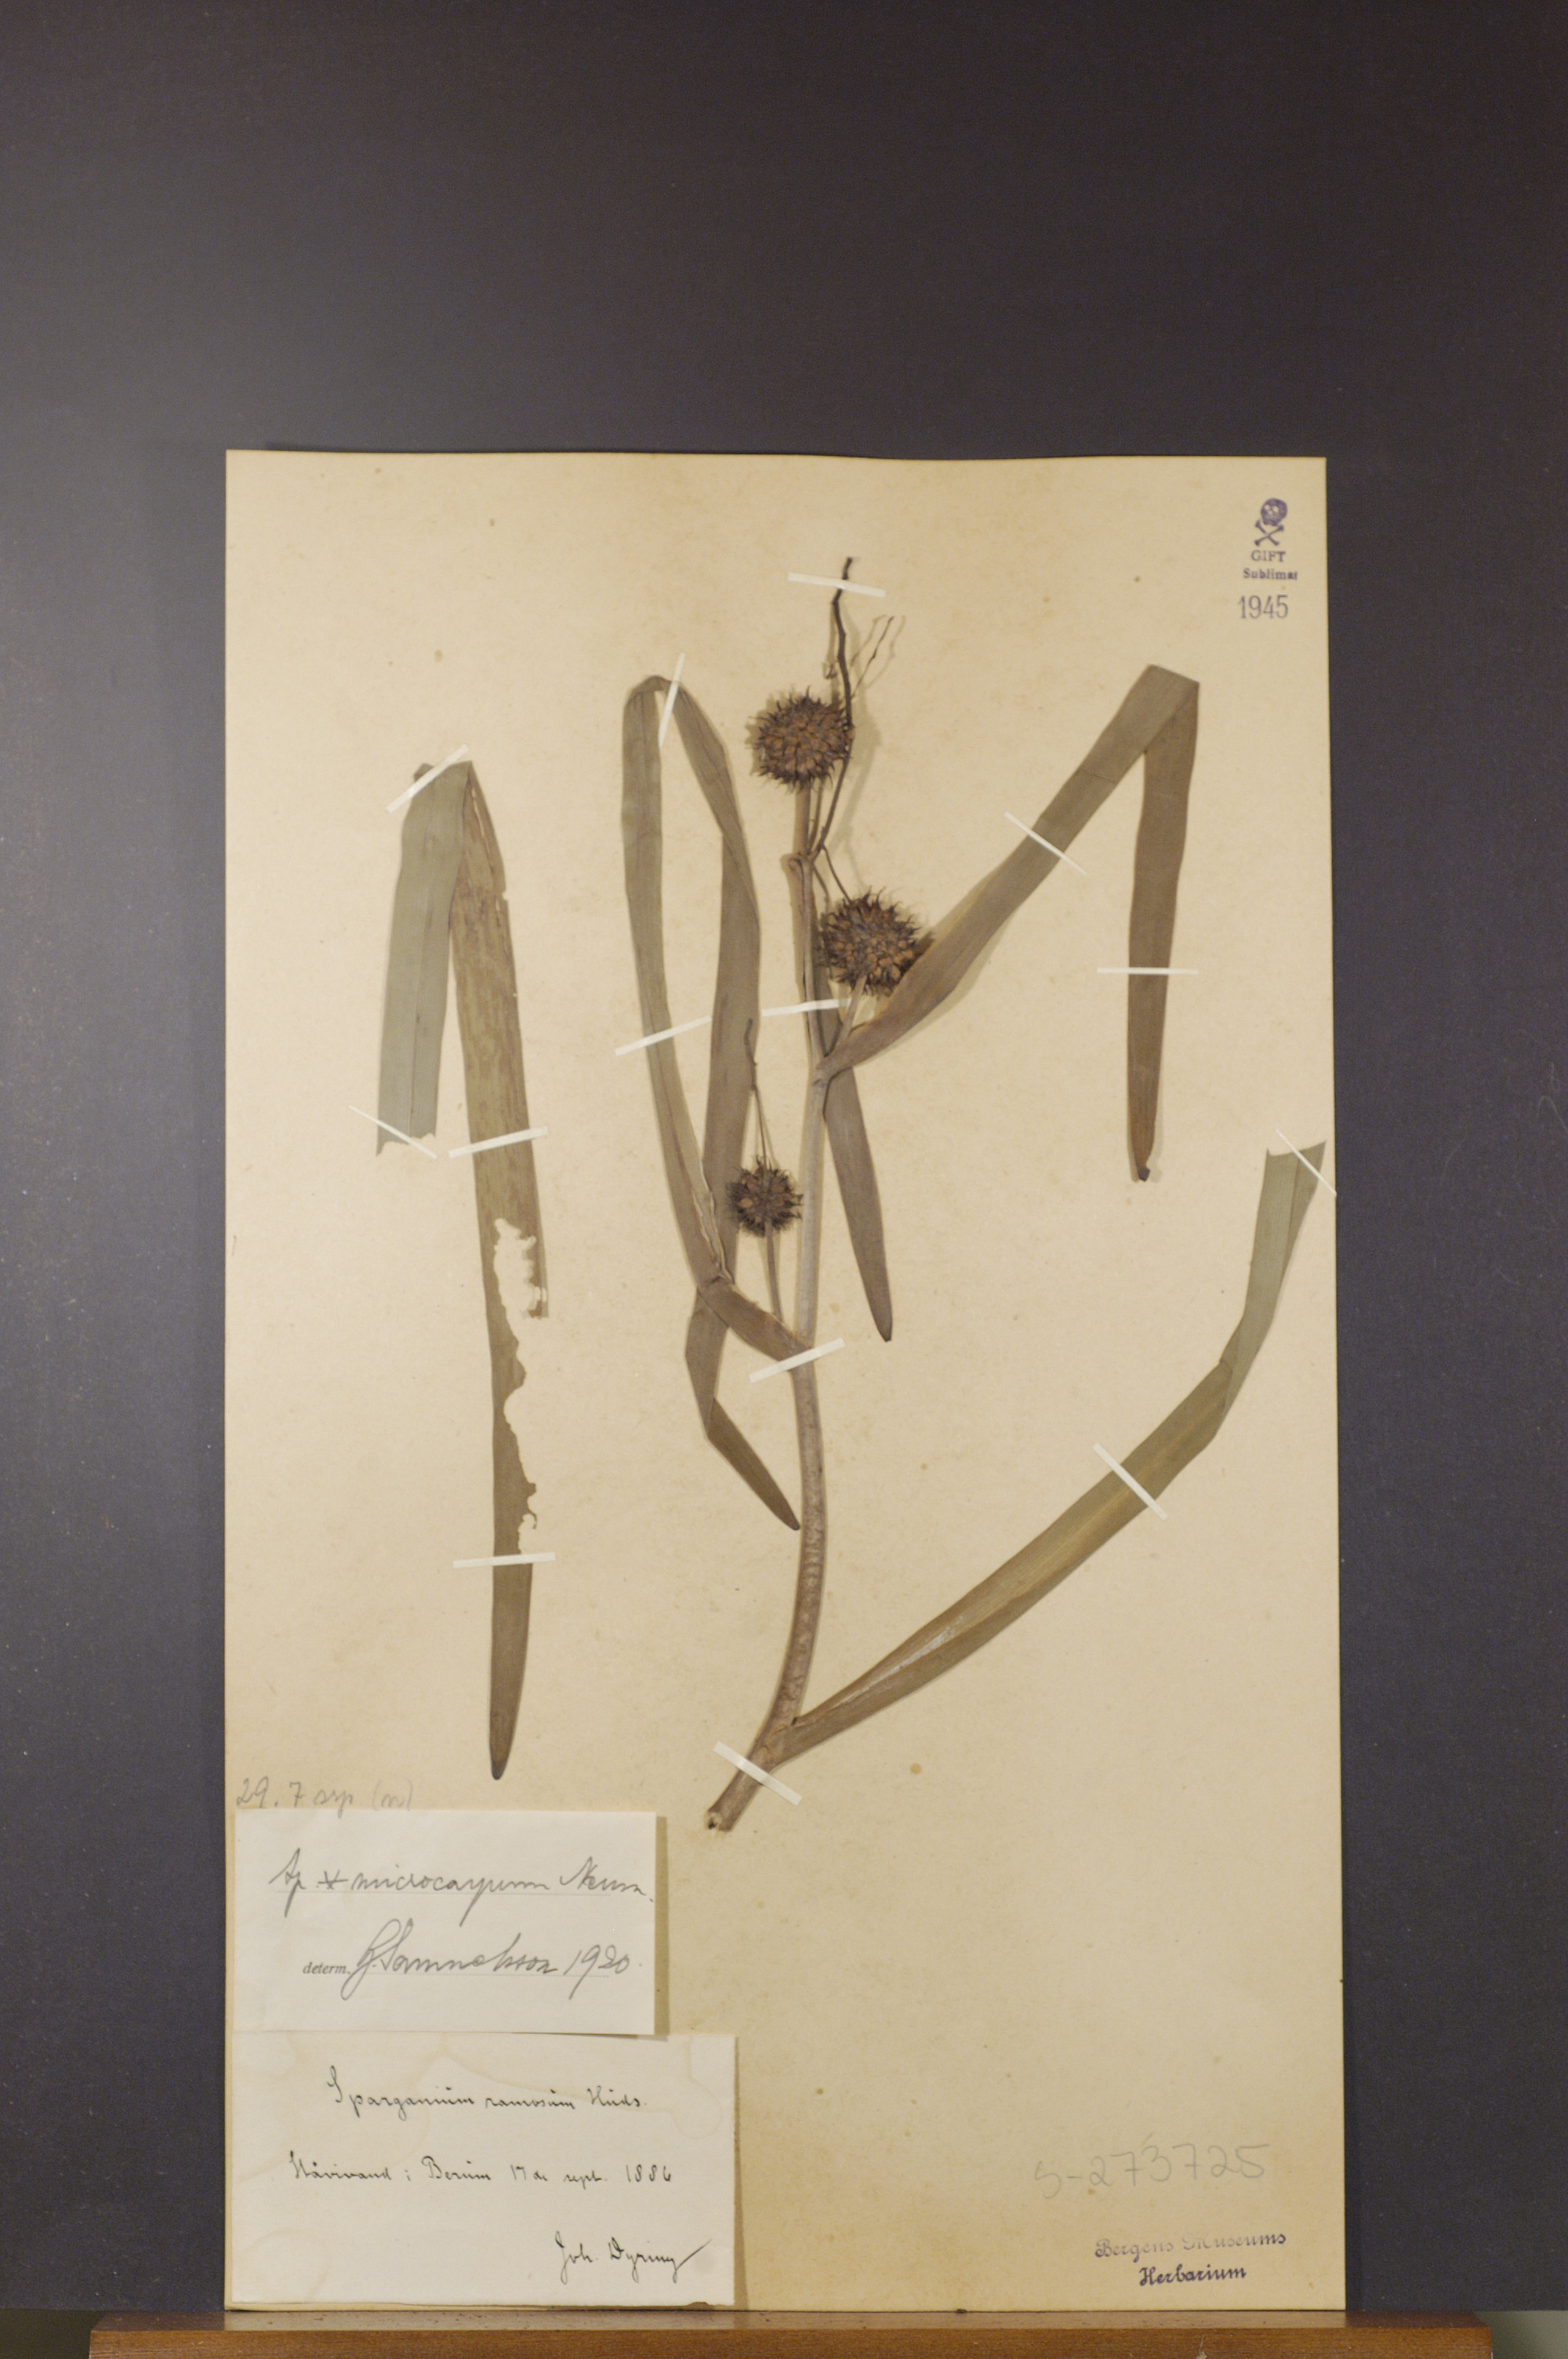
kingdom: Plantae
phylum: Tracheophyta
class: Liliopsida
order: Poales
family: Typhaceae
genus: Sparganium
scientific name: Sparganium erectum
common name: Branched bur-reed
